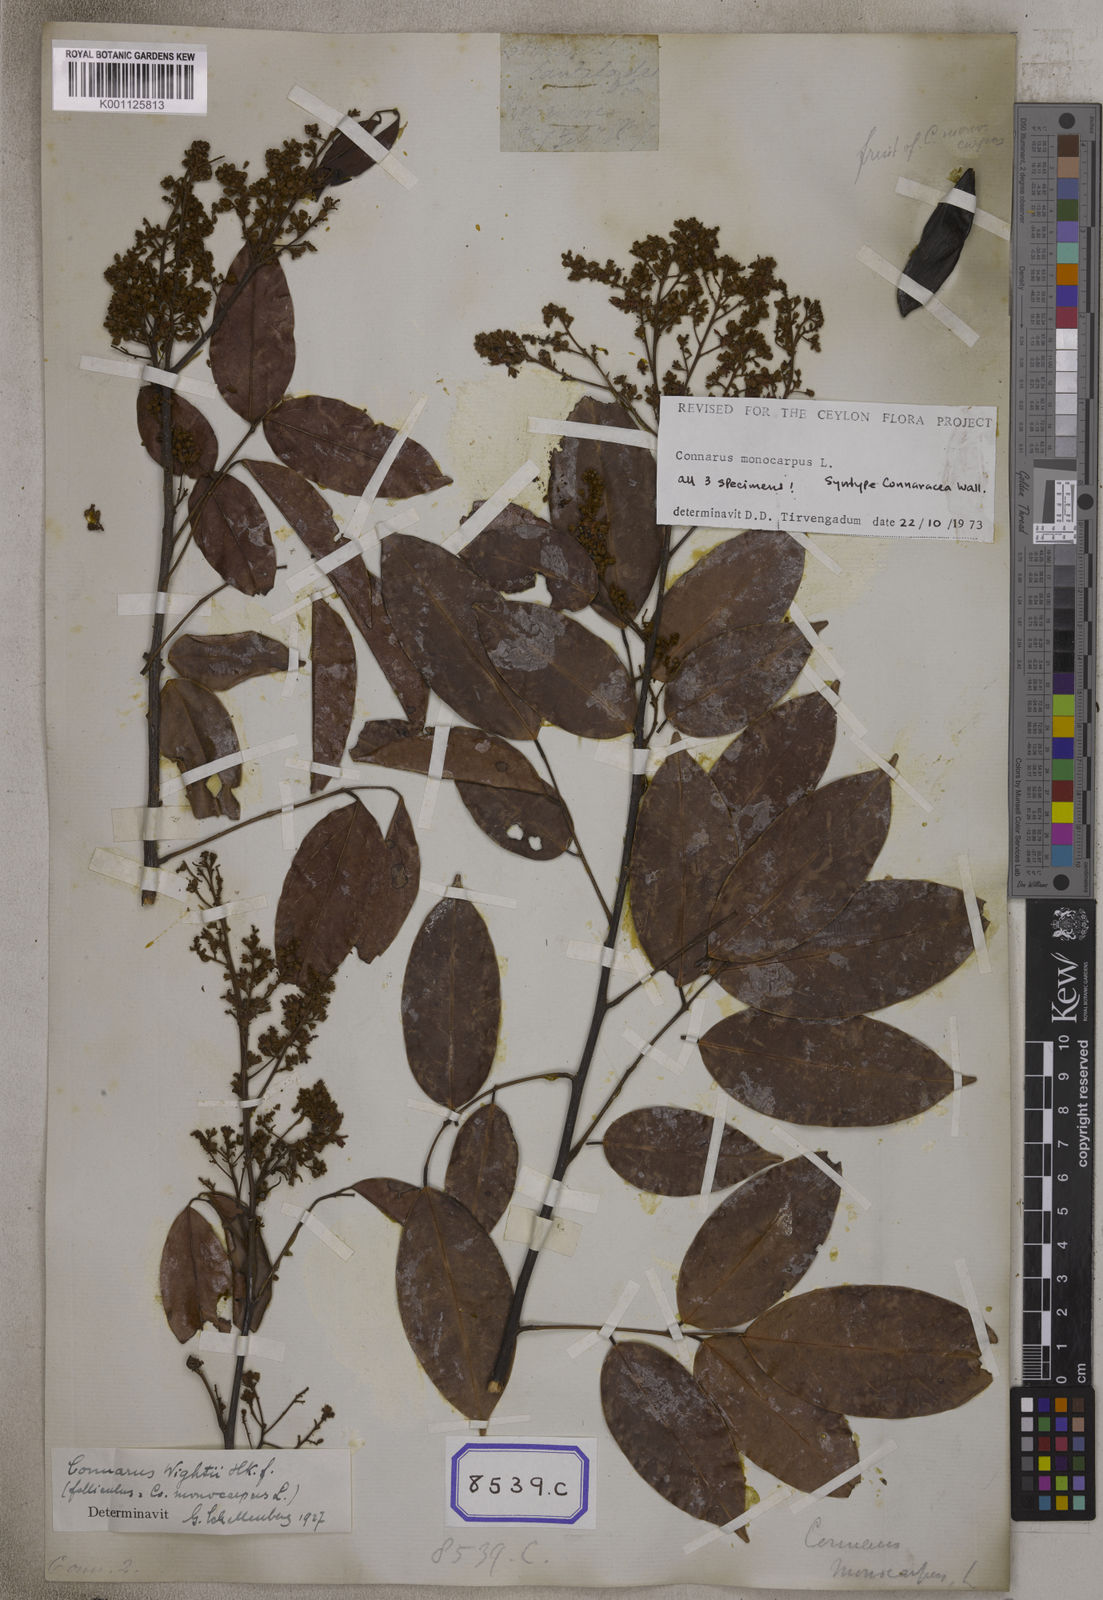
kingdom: Plantae
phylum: Tracheophyta
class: Magnoliopsida
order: Oxalidales
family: Connaraceae
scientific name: Connaraceae
